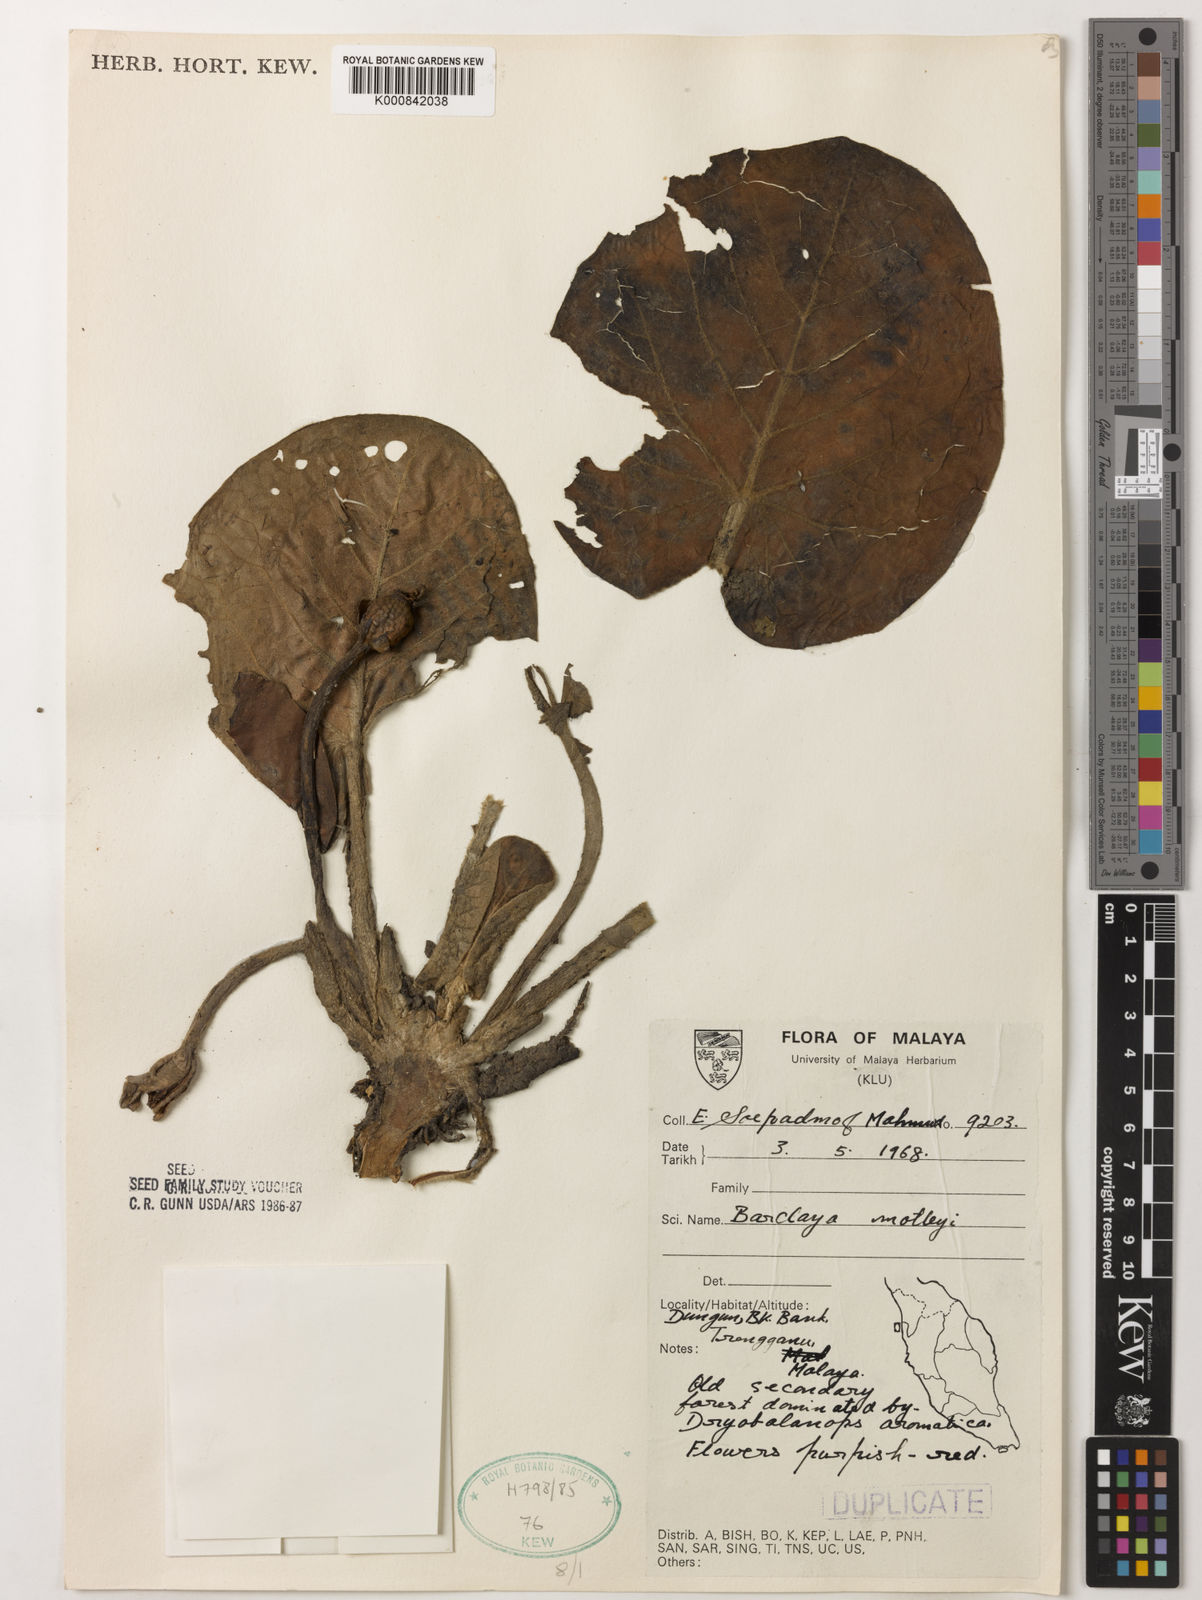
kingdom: Plantae
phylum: Tracheophyta
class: Magnoliopsida
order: Nymphaeales
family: Nymphaeaceae
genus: Barclaya
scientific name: Barclaya motleyi
